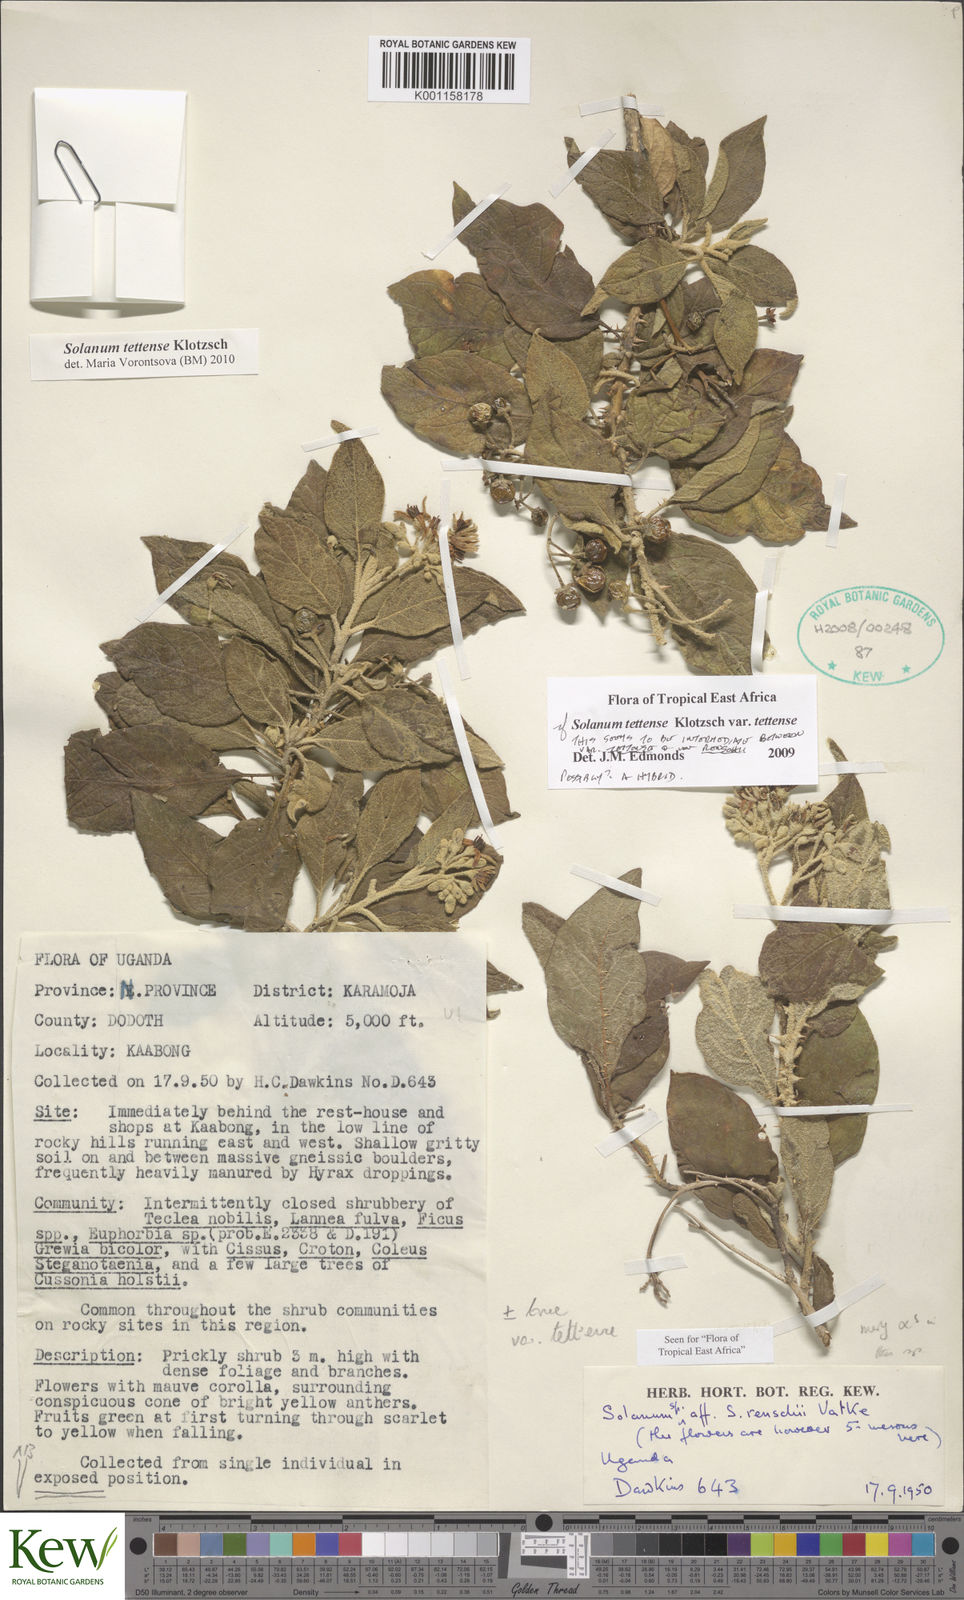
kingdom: Plantae
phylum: Tracheophyta
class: Magnoliopsida
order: Solanales
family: Solanaceae
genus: Solanum
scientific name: Solanum tettense
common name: Mozambique bitter apple
